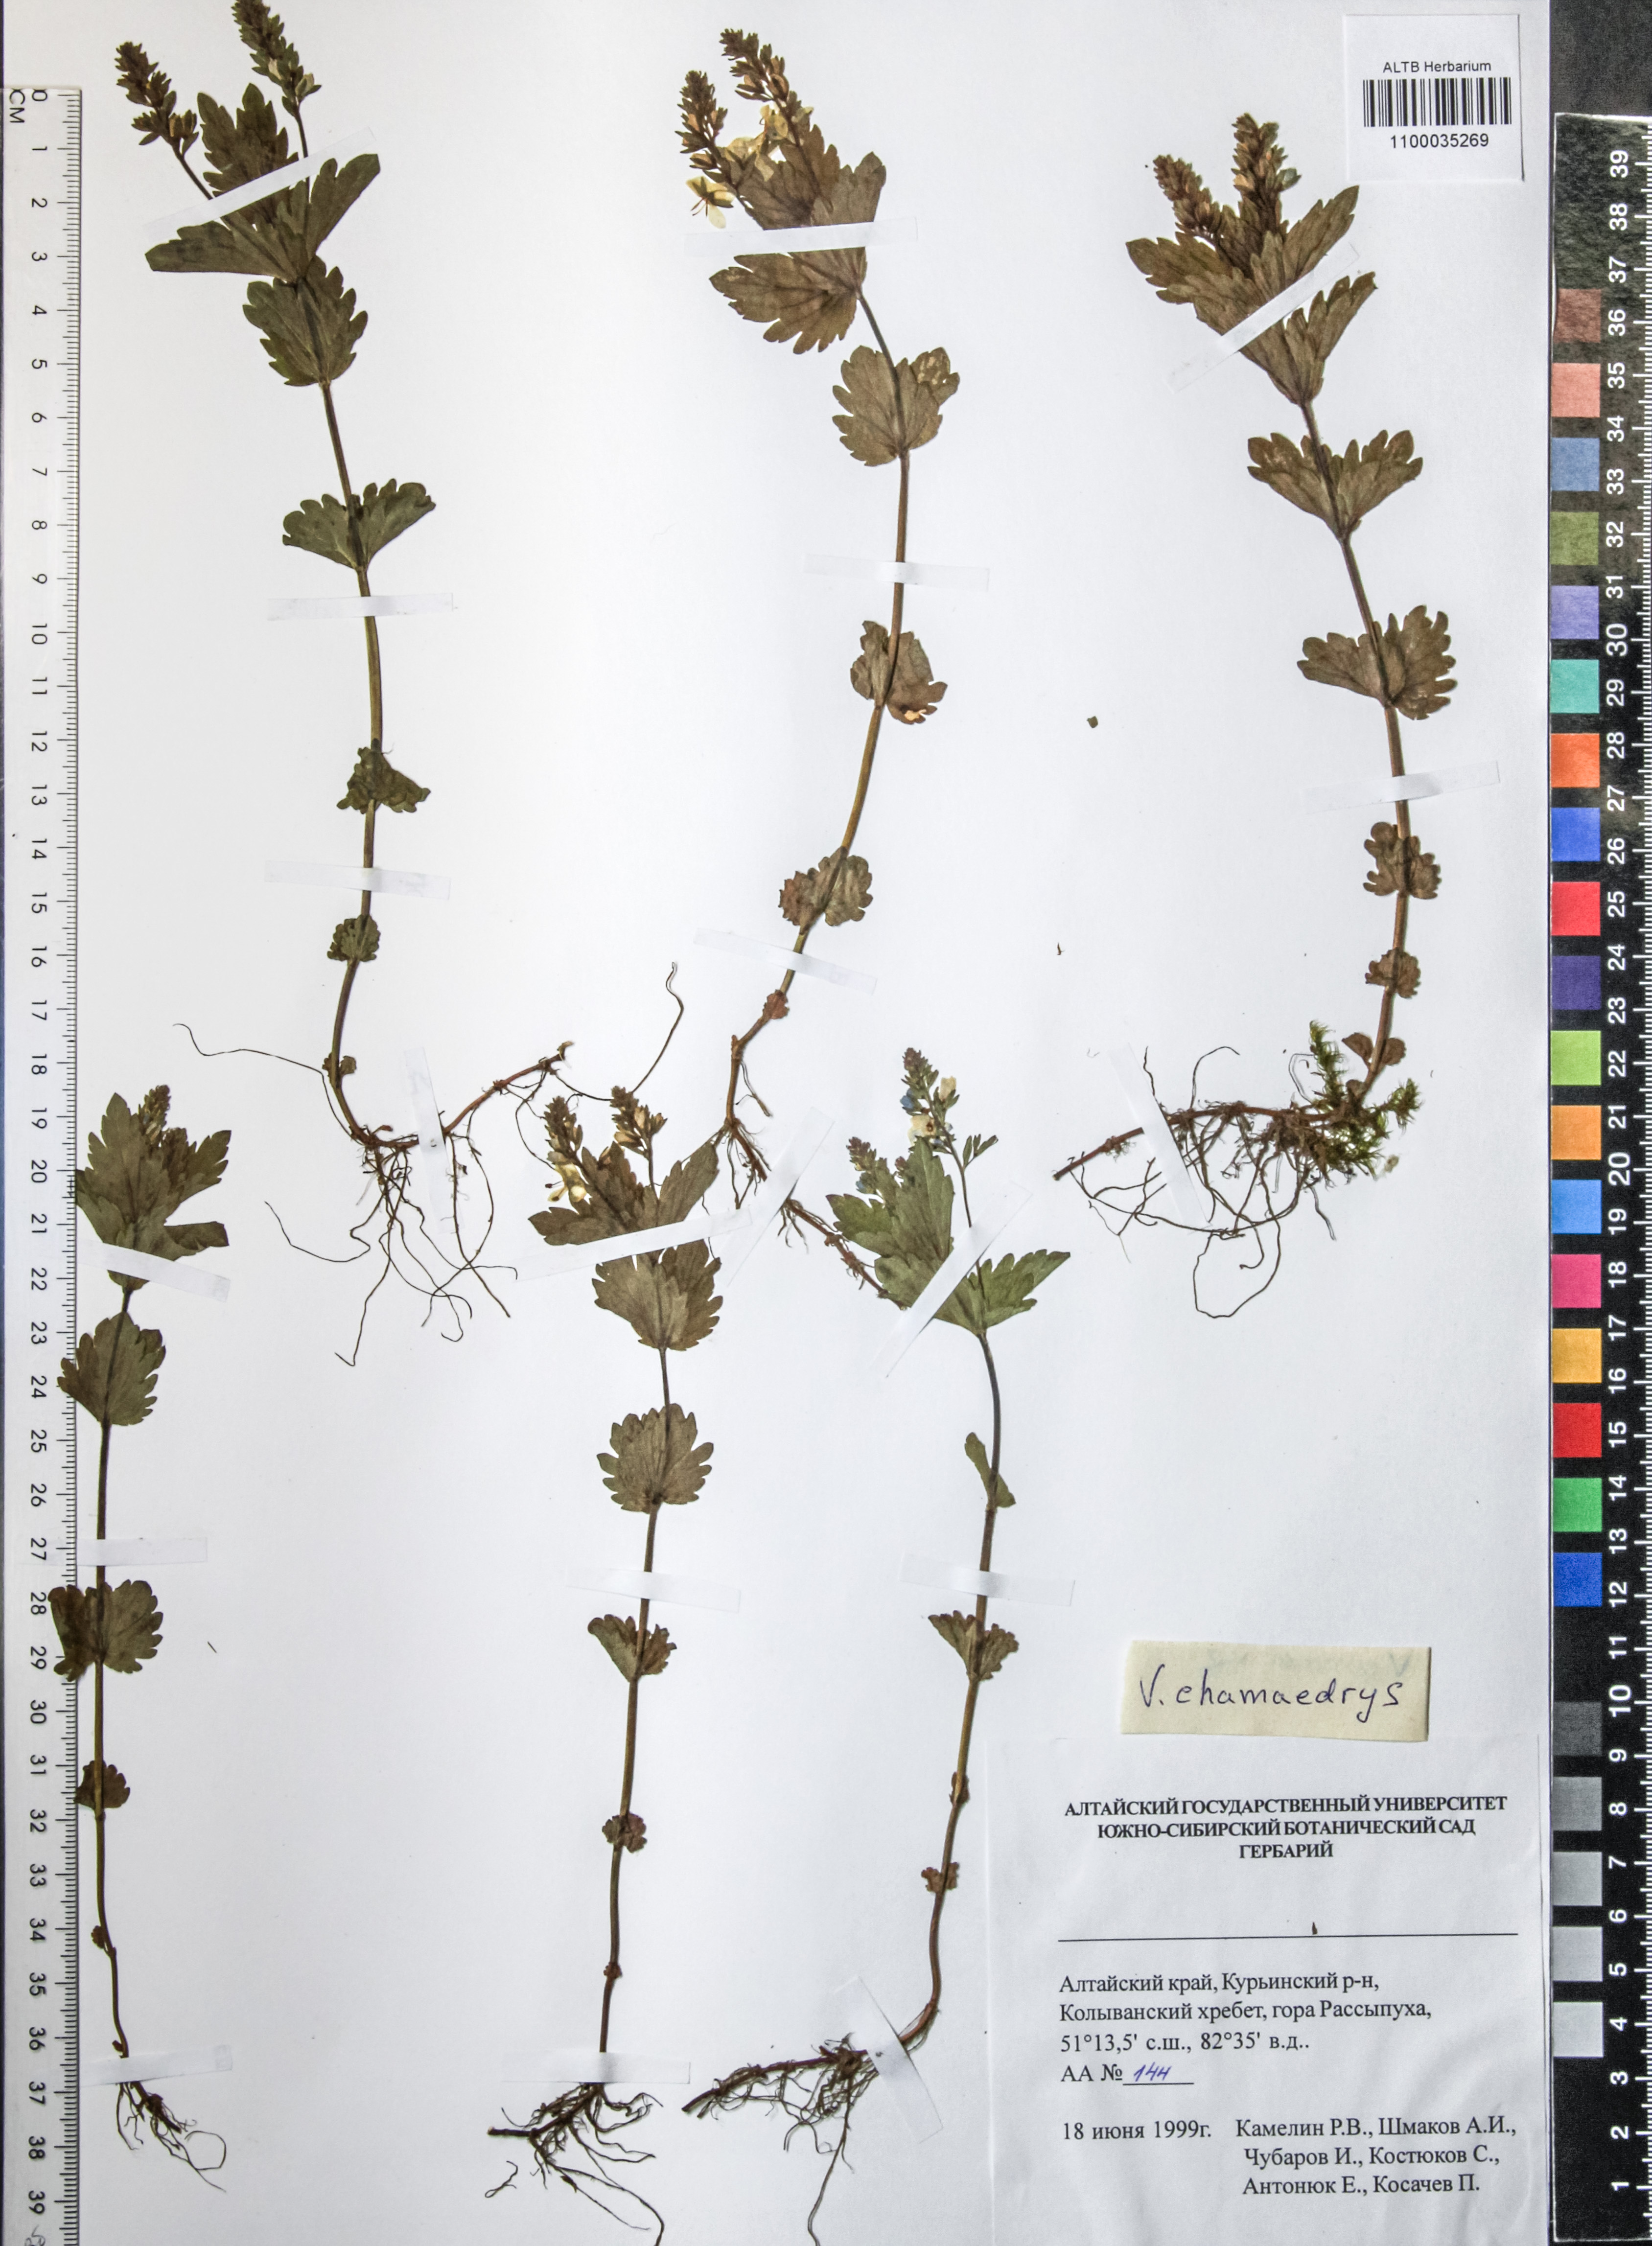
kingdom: Plantae
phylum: Tracheophyta
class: Magnoliopsida
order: Lamiales
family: Plantaginaceae
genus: Veronica
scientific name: Veronica chamaedrys
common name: Germander speedwell
